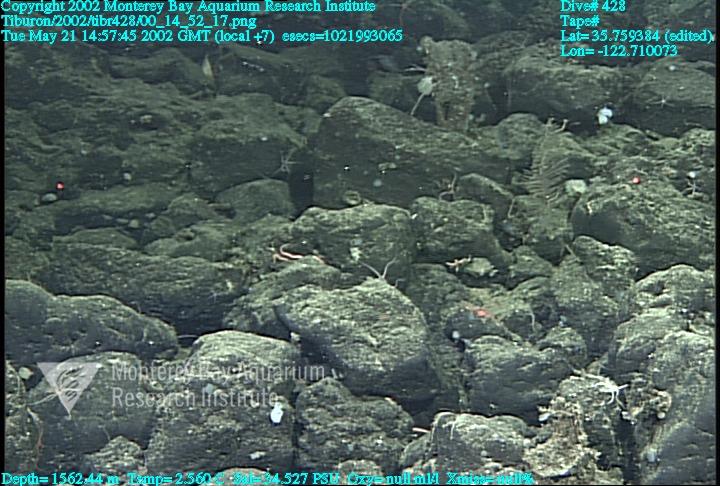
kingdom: Animalia
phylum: Porifera
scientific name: Porifera
